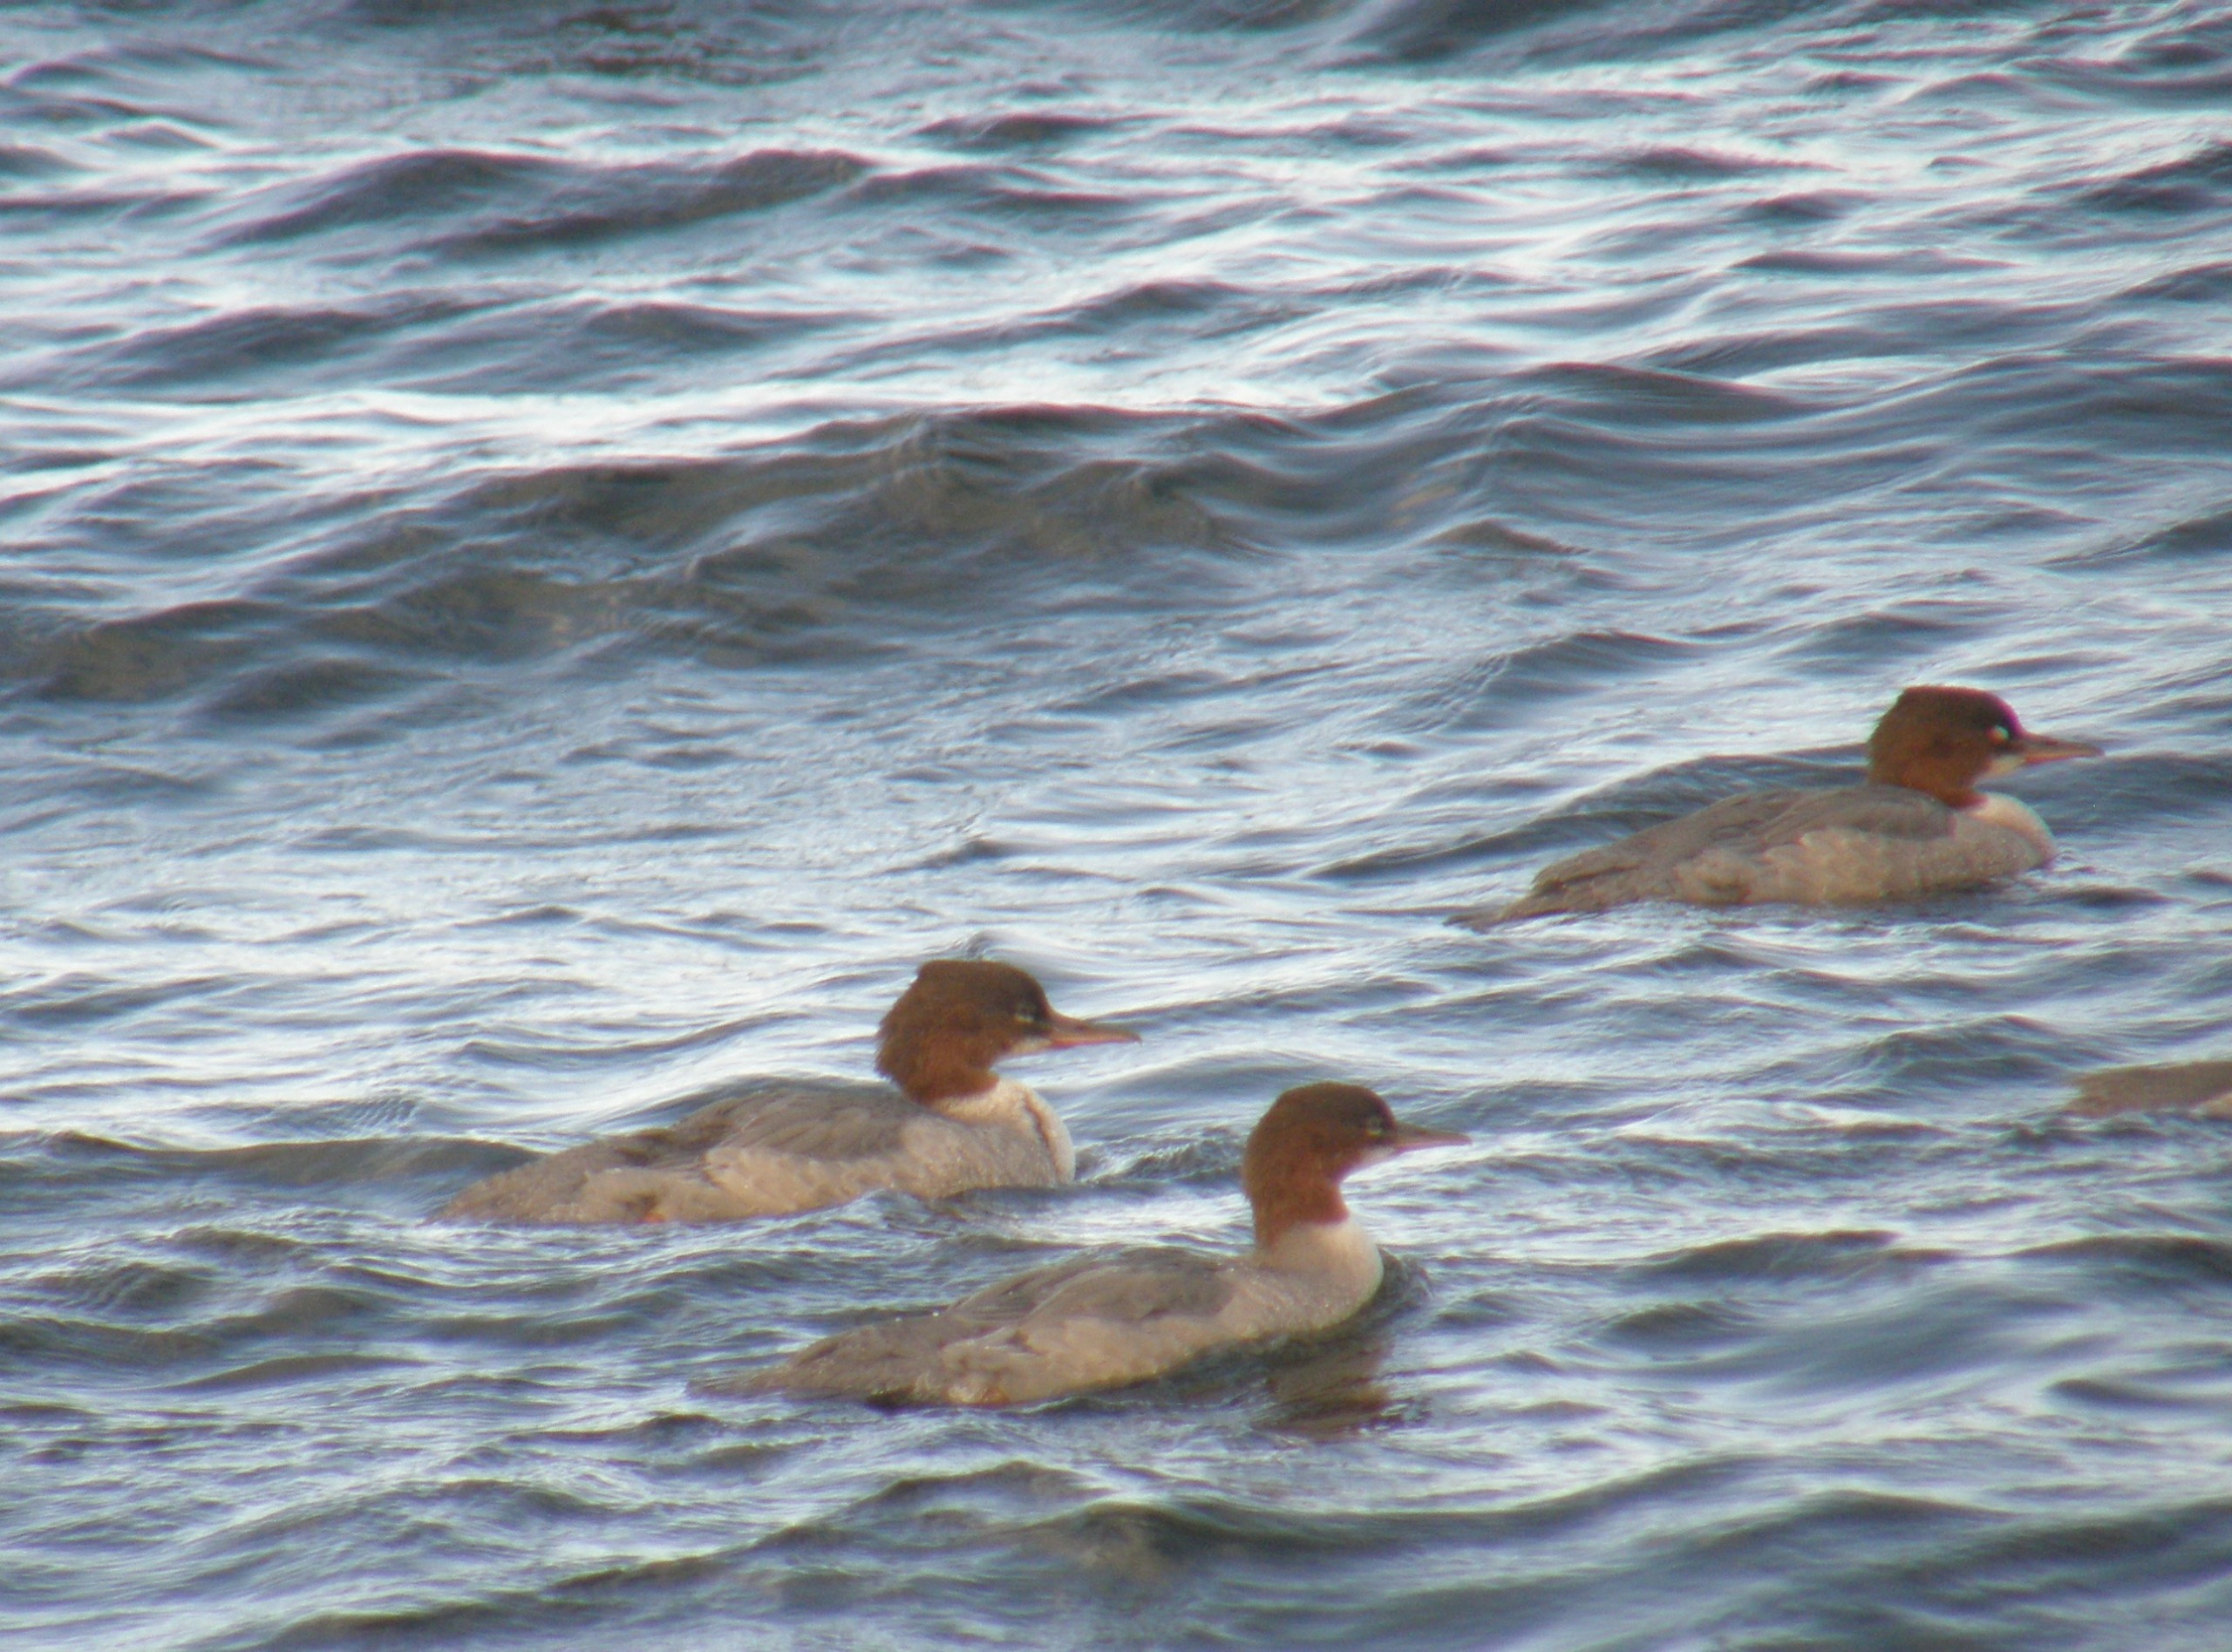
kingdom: Animalia
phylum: Chordata
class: Aves
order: Anseriformes
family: Anatidae
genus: Mergus
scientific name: Mergus merganser
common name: Stor skallesluger
